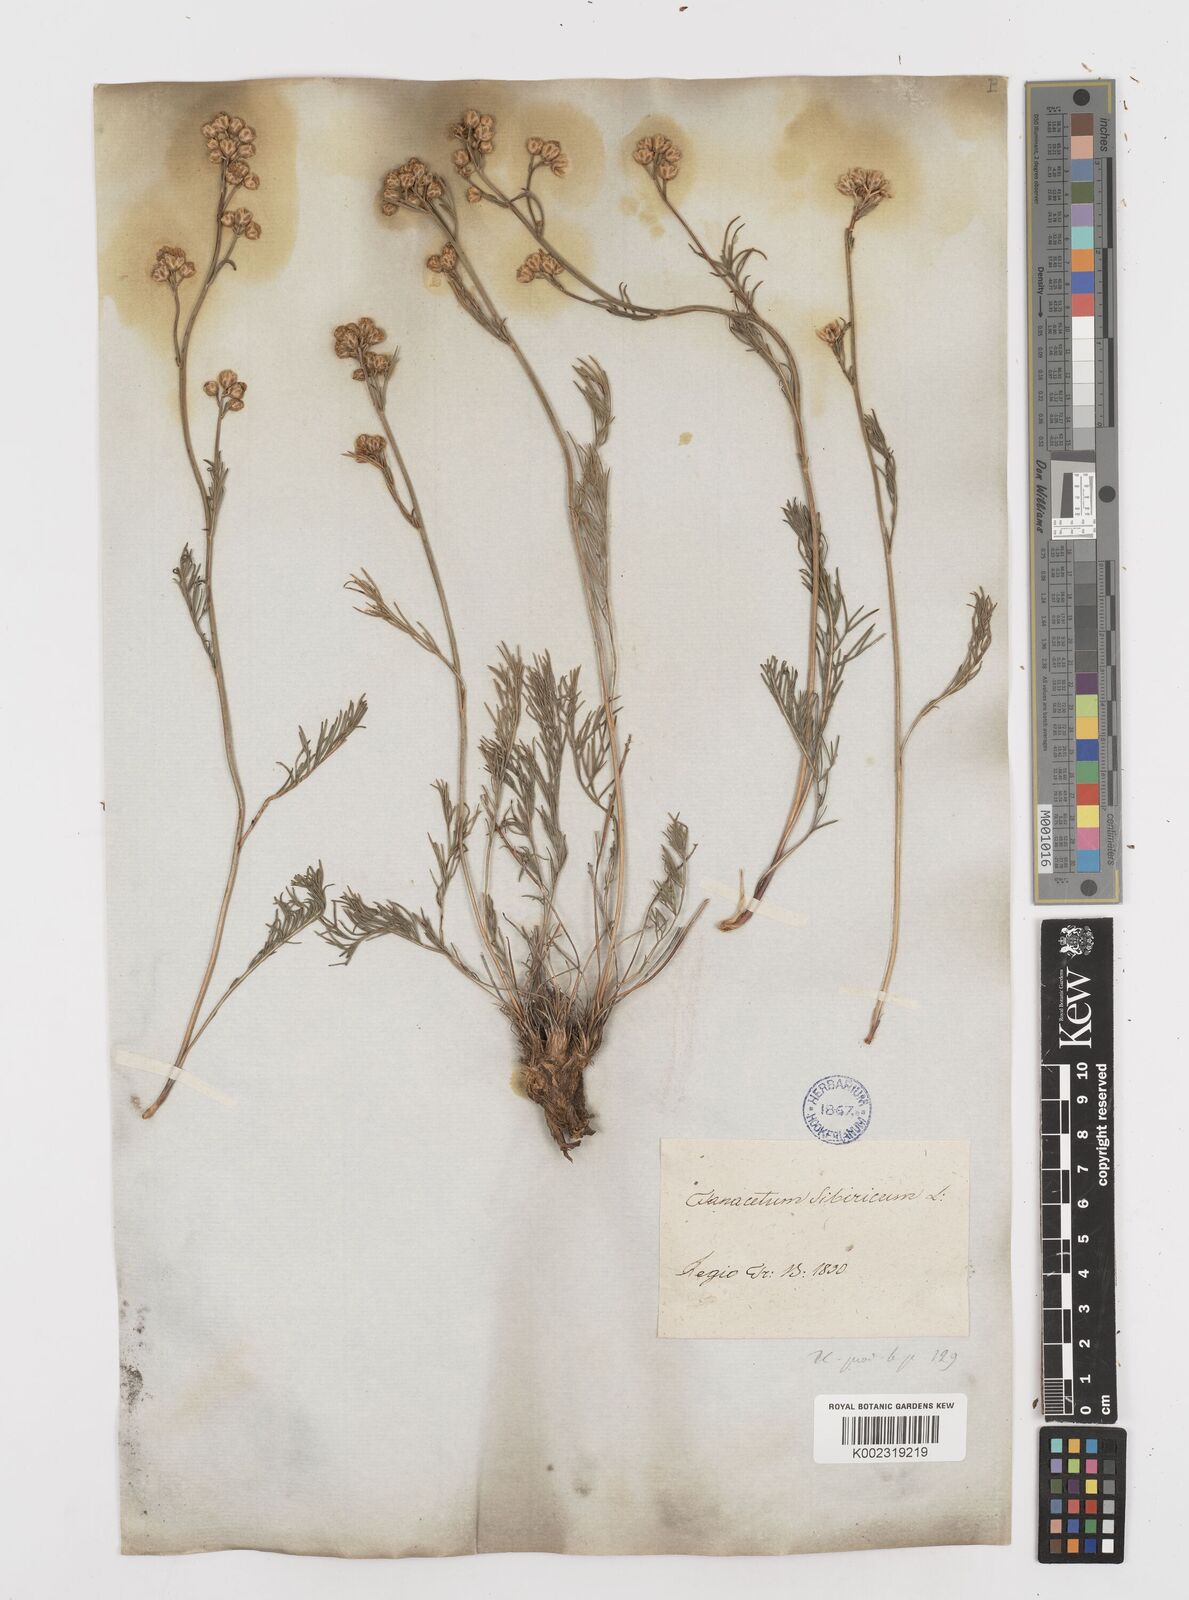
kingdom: Plantae
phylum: Tracheophyta
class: Magnoliopsida
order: Asterales
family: Asteraceae
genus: Filifolium
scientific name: Filifolium sibiricum
